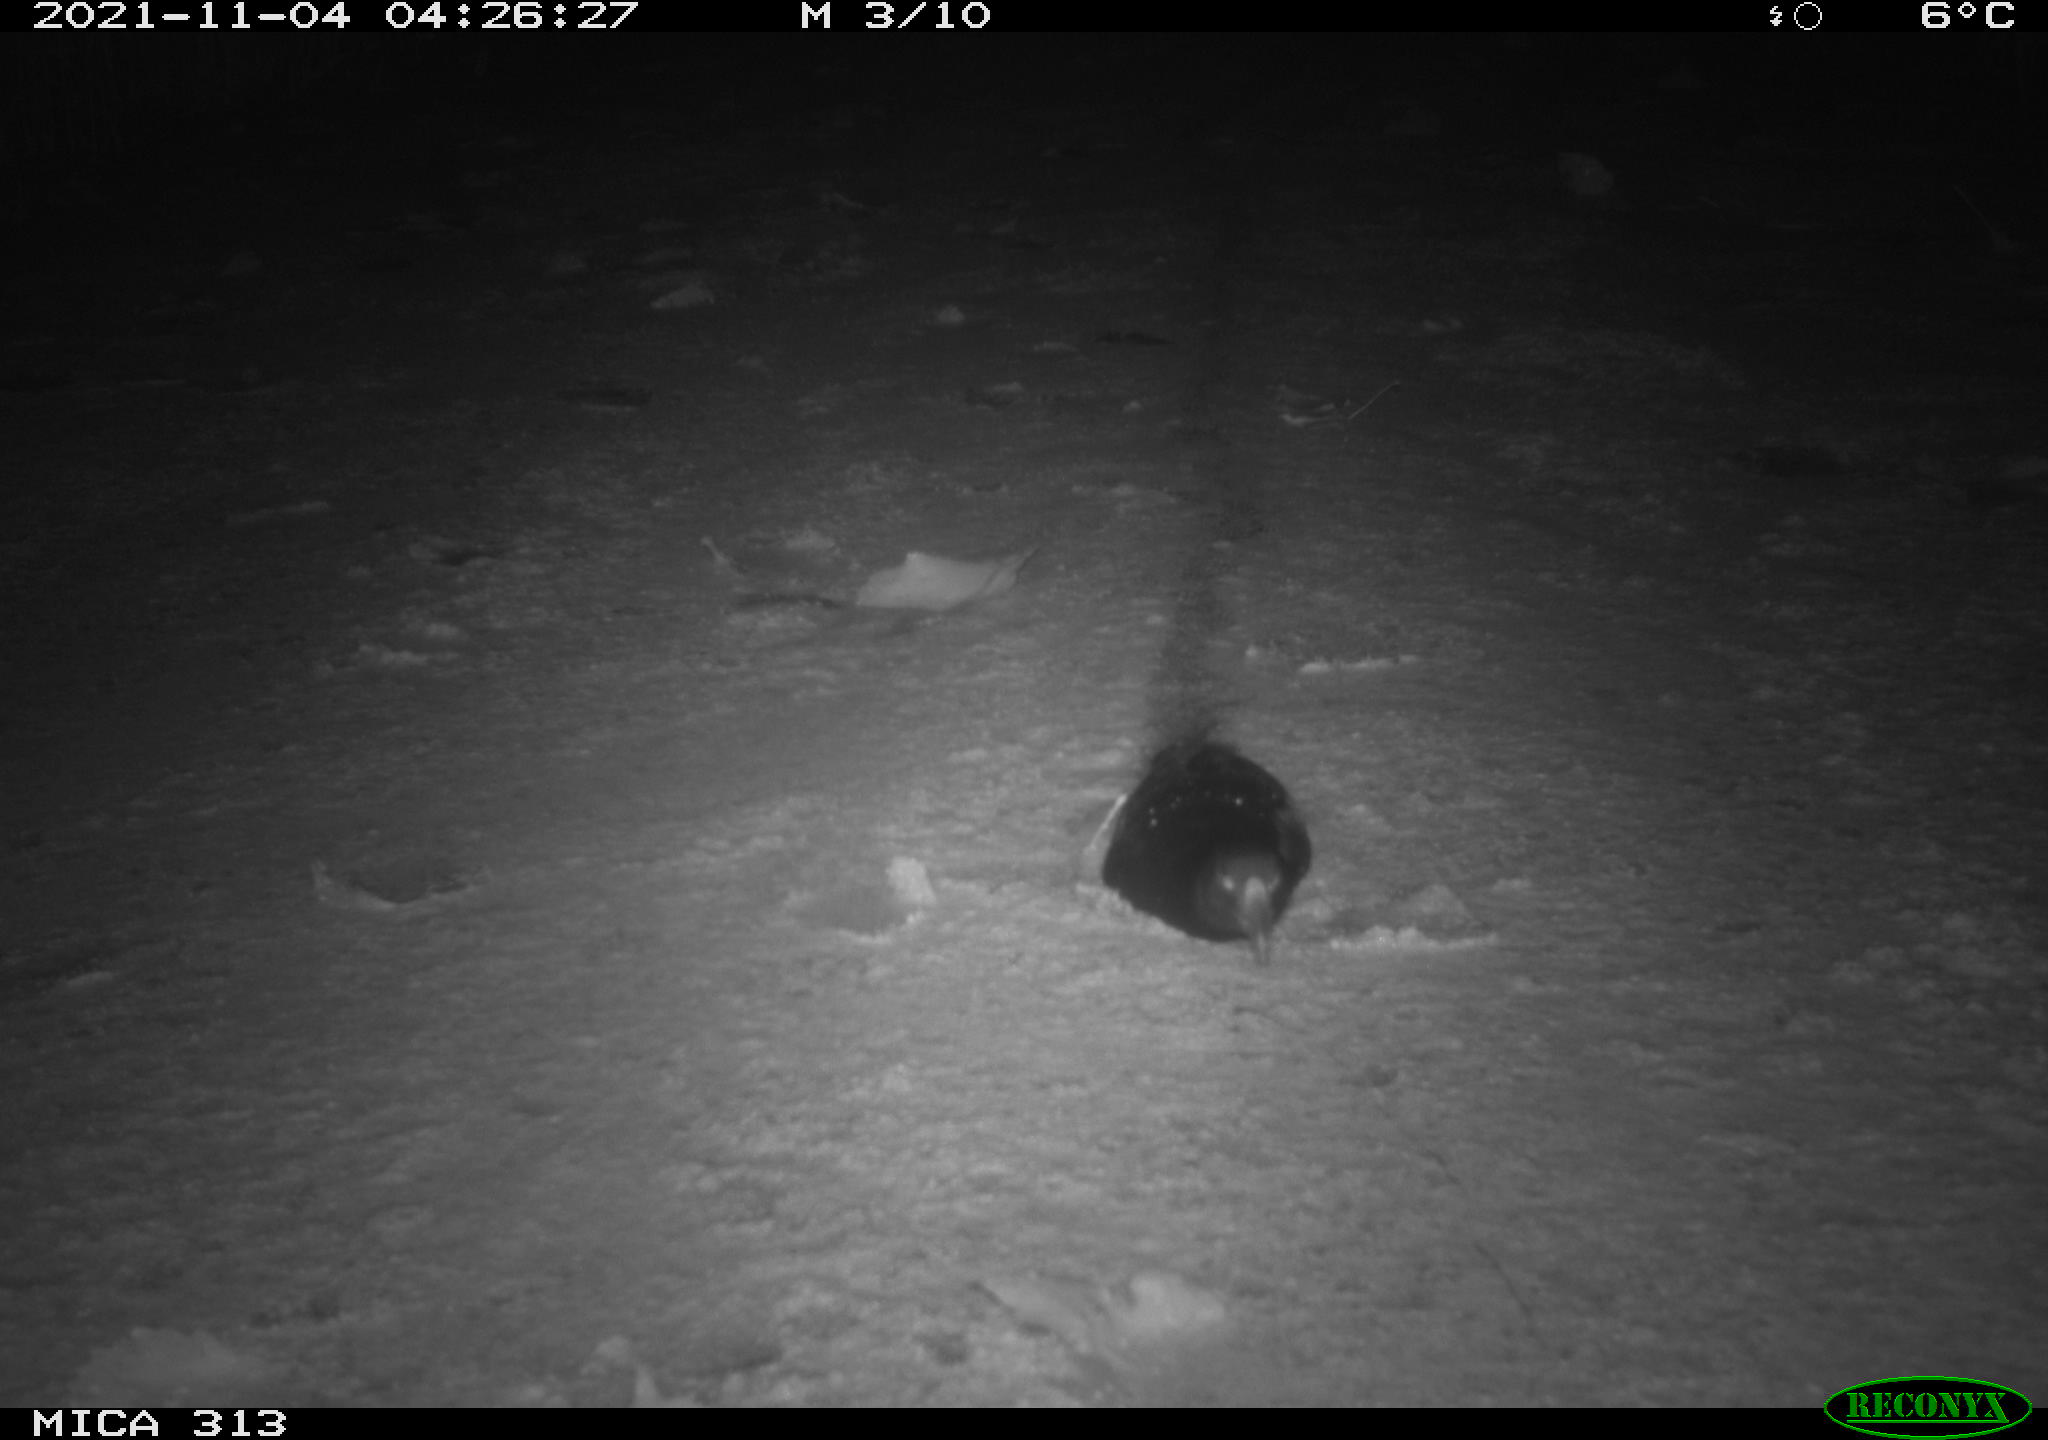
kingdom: Animalia
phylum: Chordata
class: Aves
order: Gruiformes
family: Rallidae
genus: Gallinula
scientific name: Gallinula chloropus
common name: Common moorhen
